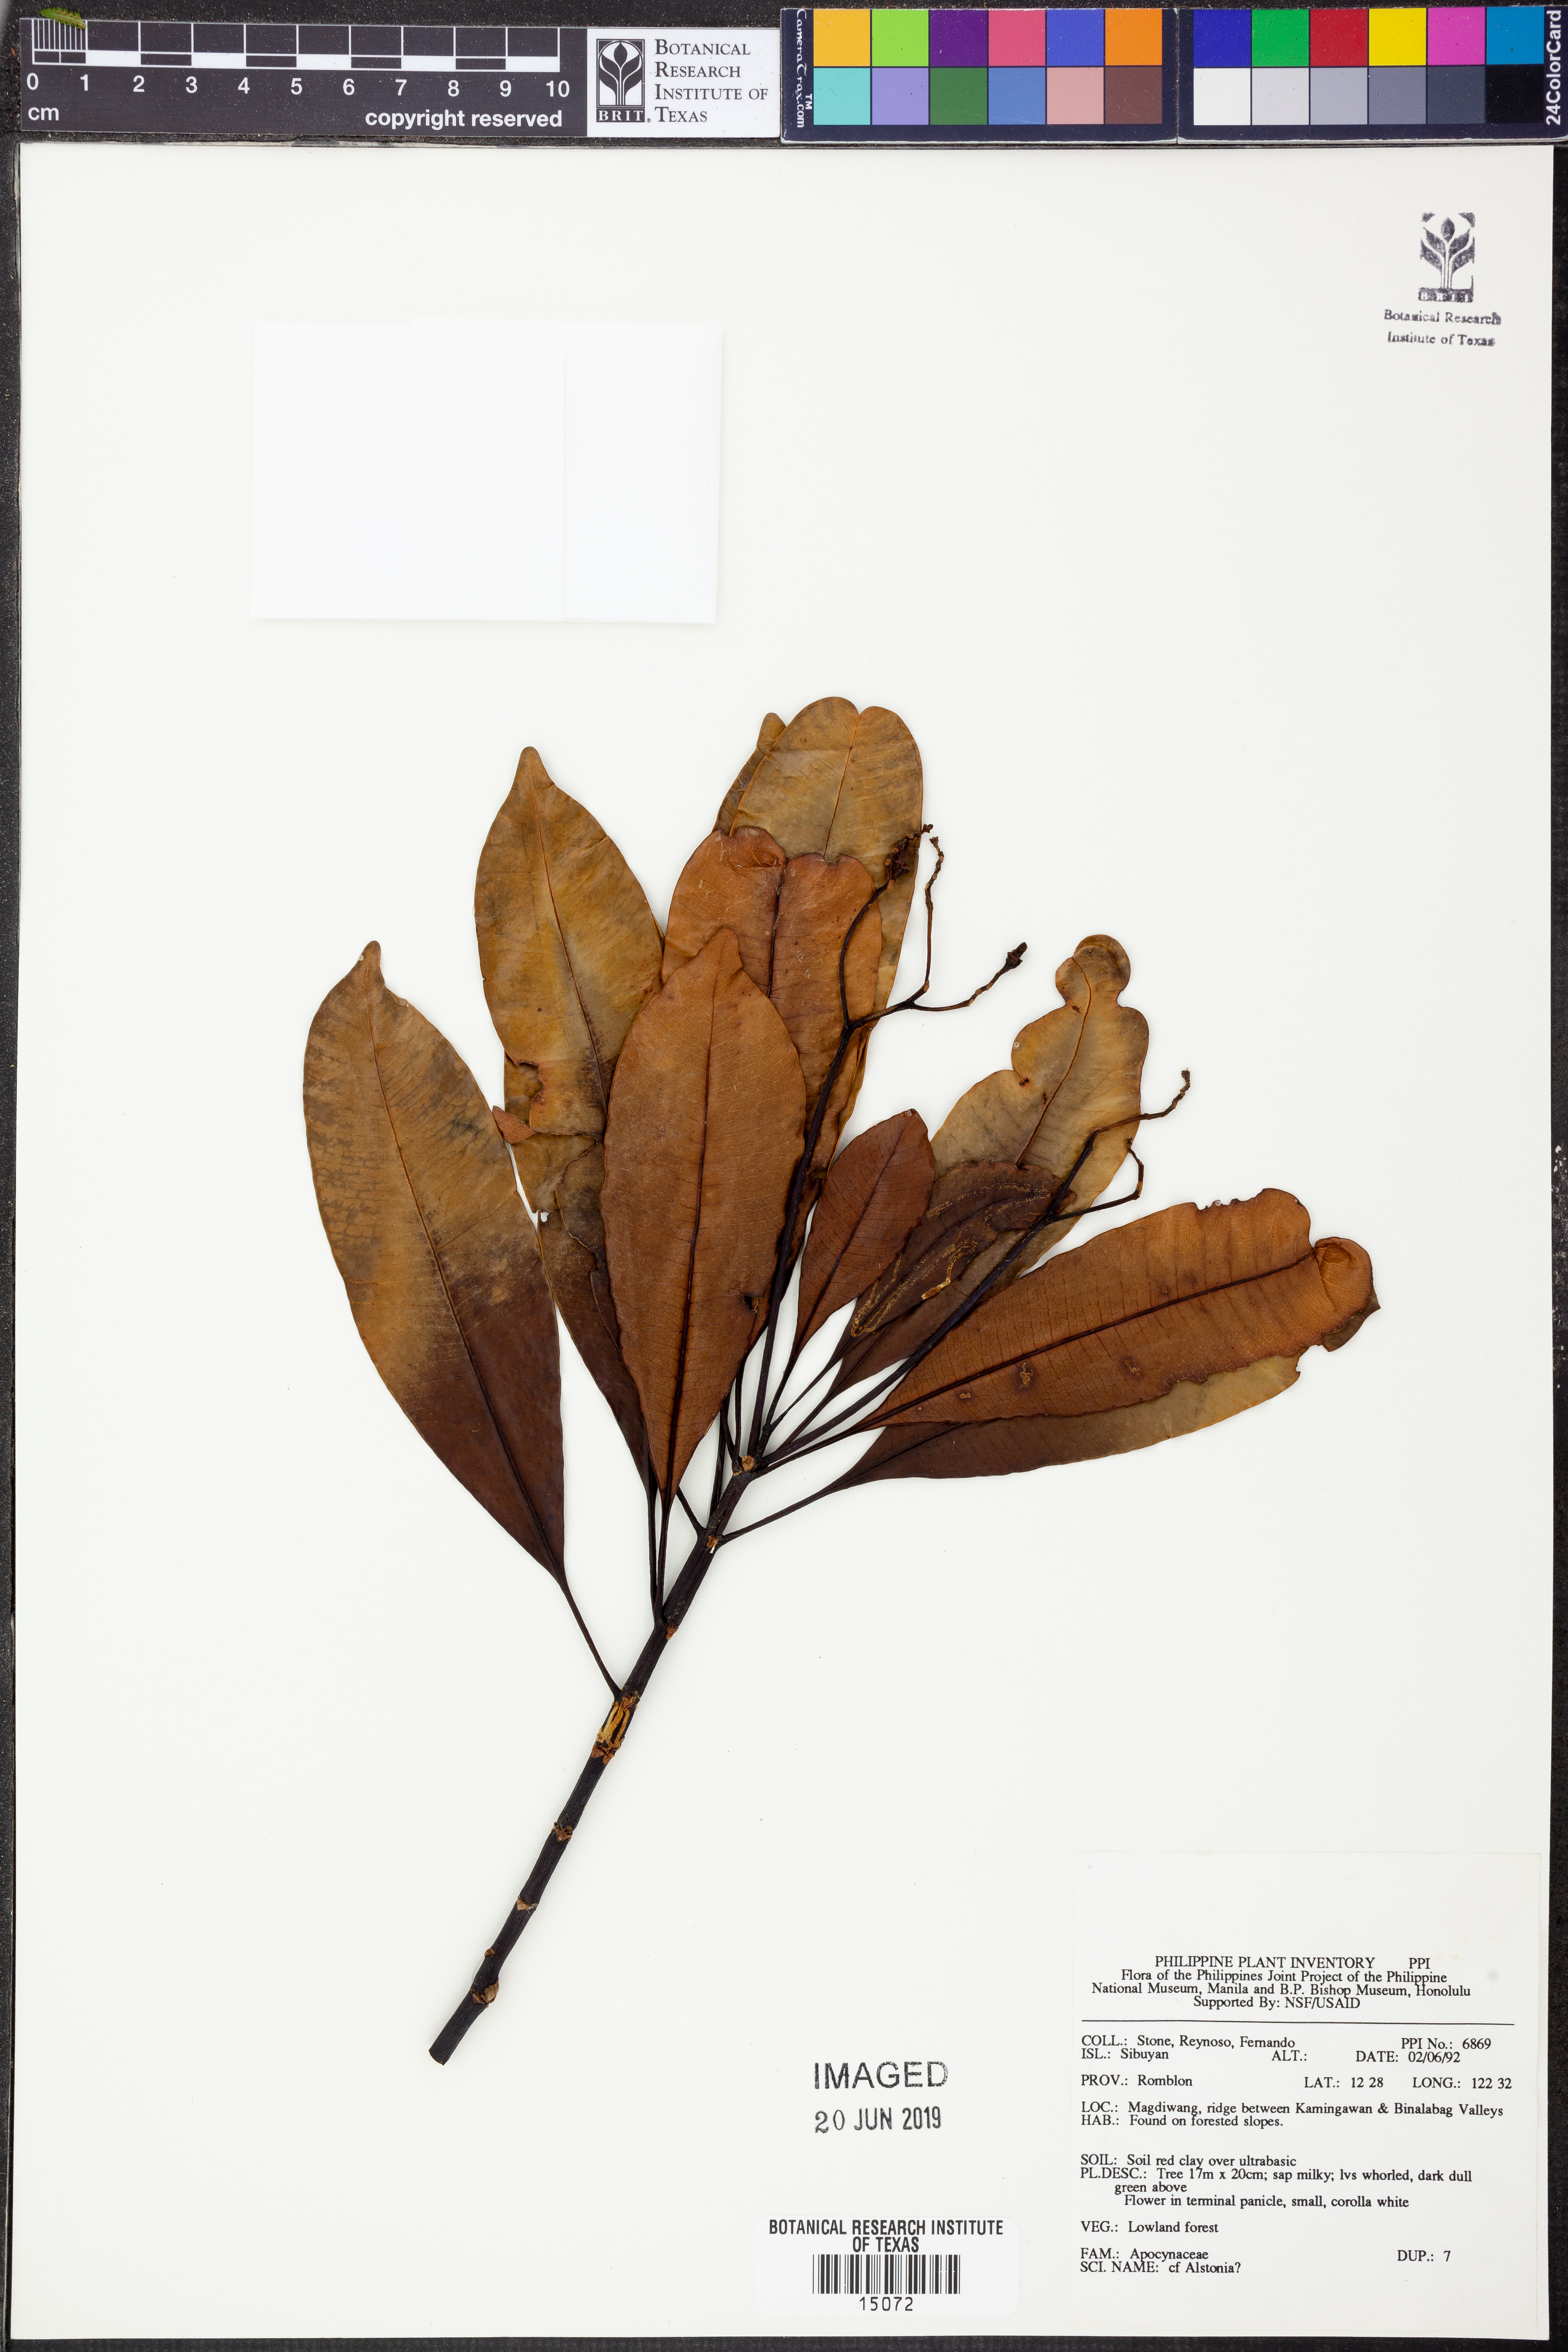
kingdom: Plantae
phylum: Tracheophyta
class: Magnoliopsida
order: Gentianales
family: Apocynaceae
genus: Alstonia
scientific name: Alstonia
